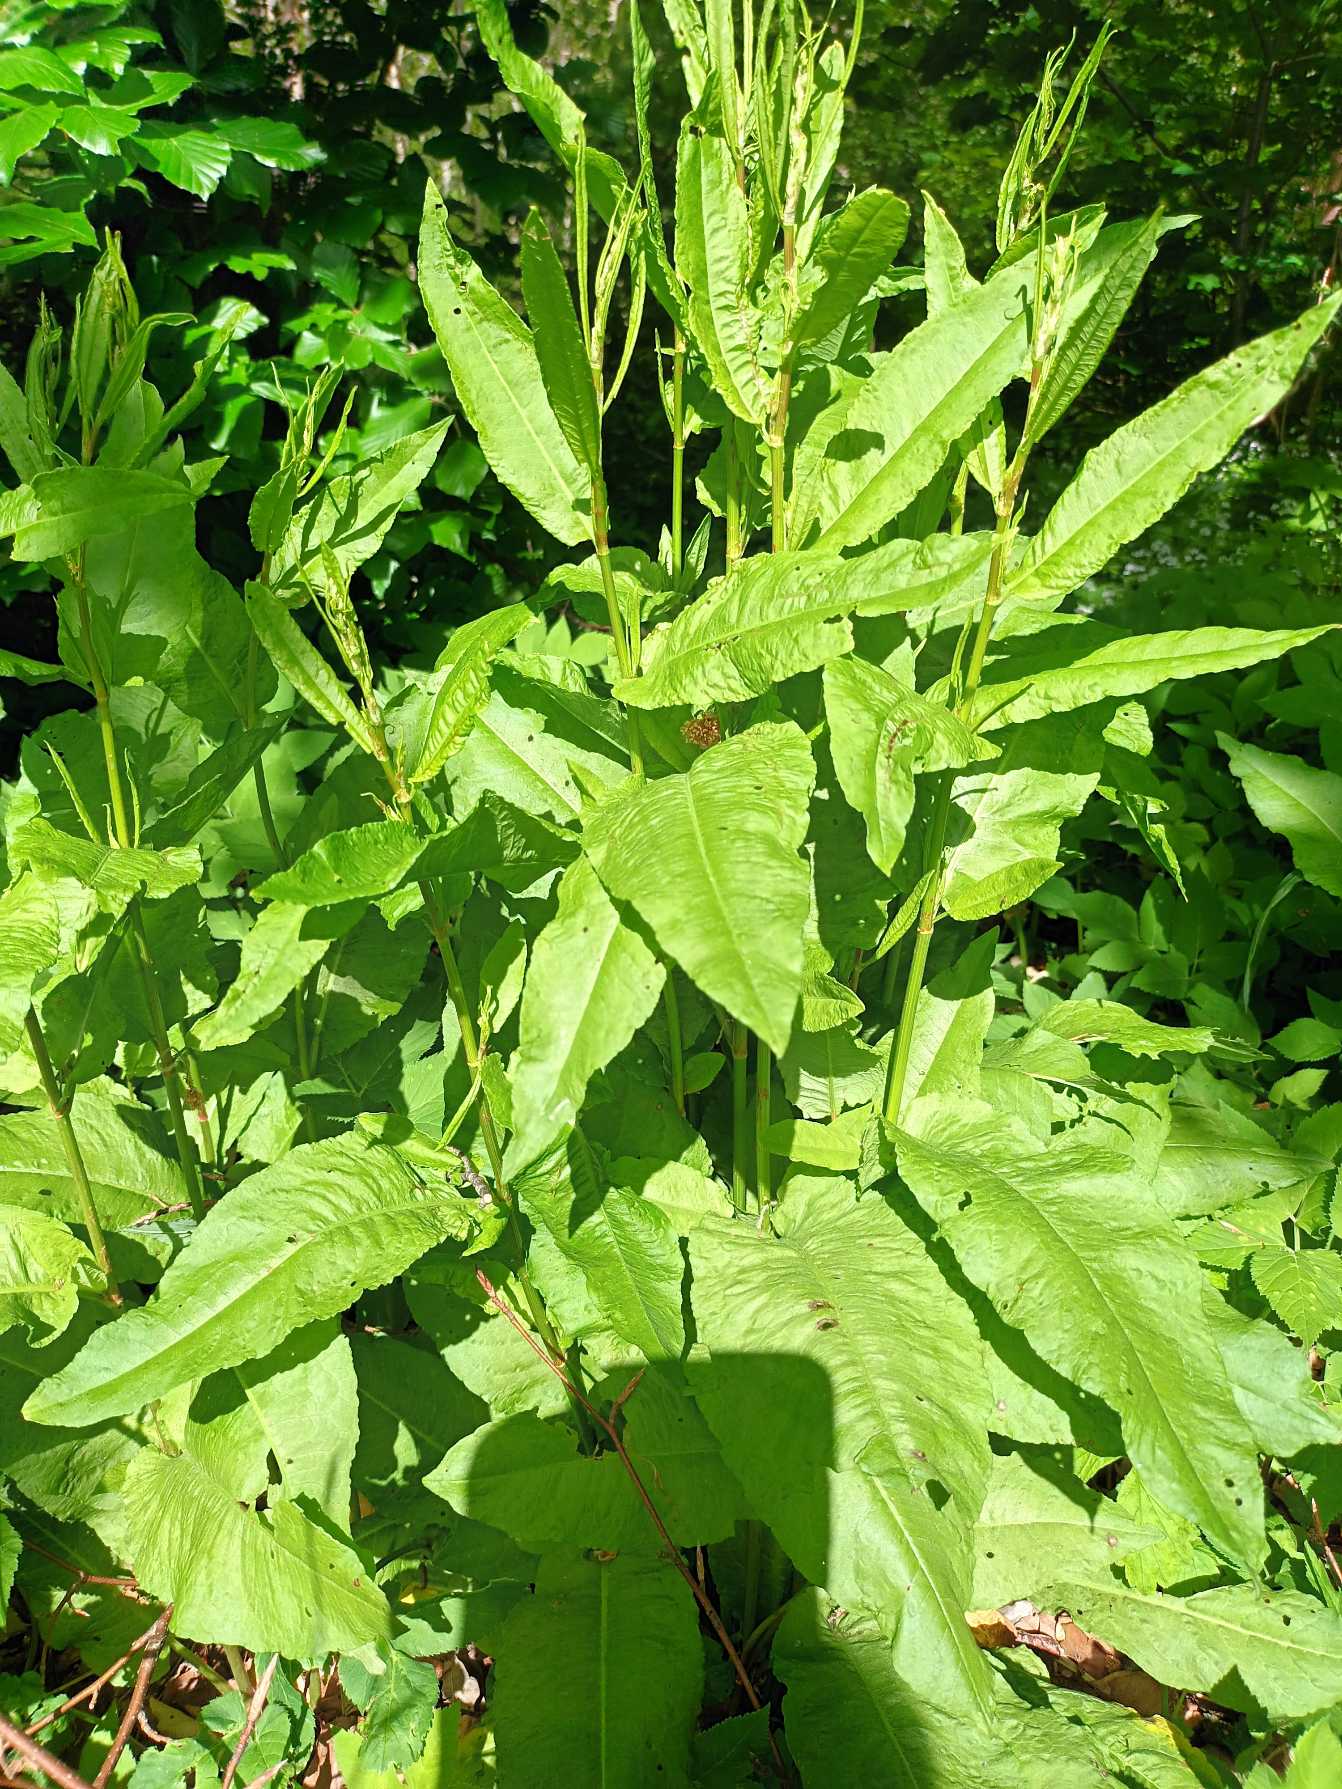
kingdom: Plantae
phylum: Tracheophyta
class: Magnoliopsida
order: Caryophyllales
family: Polygonaceae
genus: Rumex
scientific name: Rumex sanguineus
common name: Skov-skræppe
